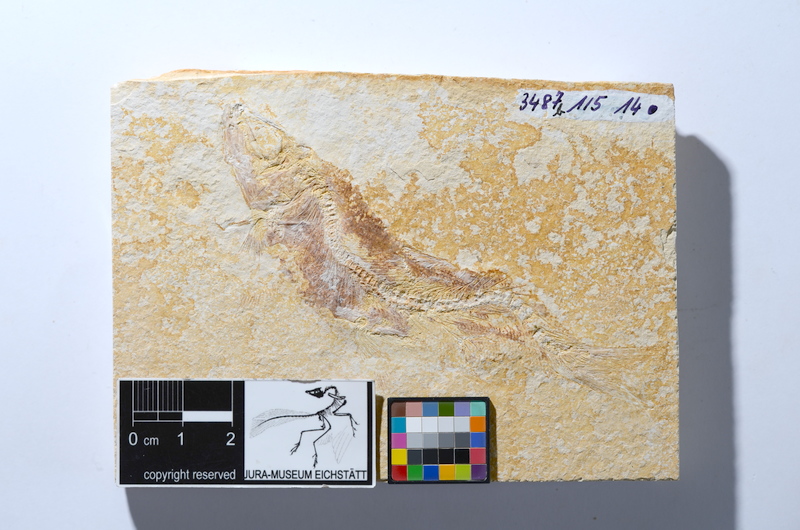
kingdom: Animalia
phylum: Chordata
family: Ascalaboidae
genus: Tharsis
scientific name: Tharsis dubius
